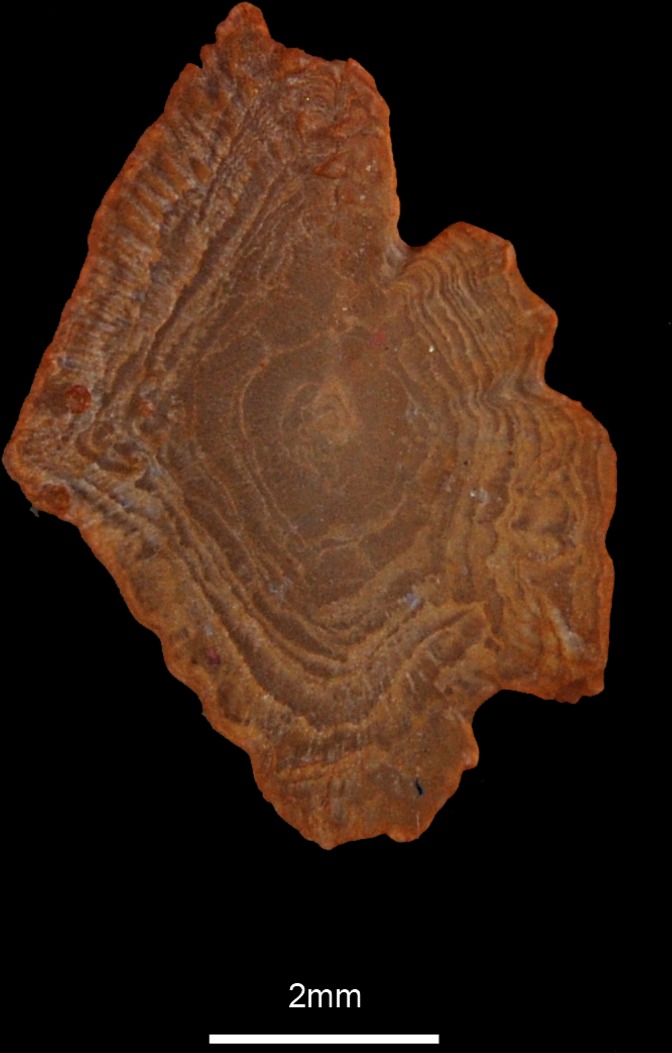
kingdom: Animalia
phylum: Chordata
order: Perciformes
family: Sparidae
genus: Spicara
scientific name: Spicara maena
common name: Blotched picarel
